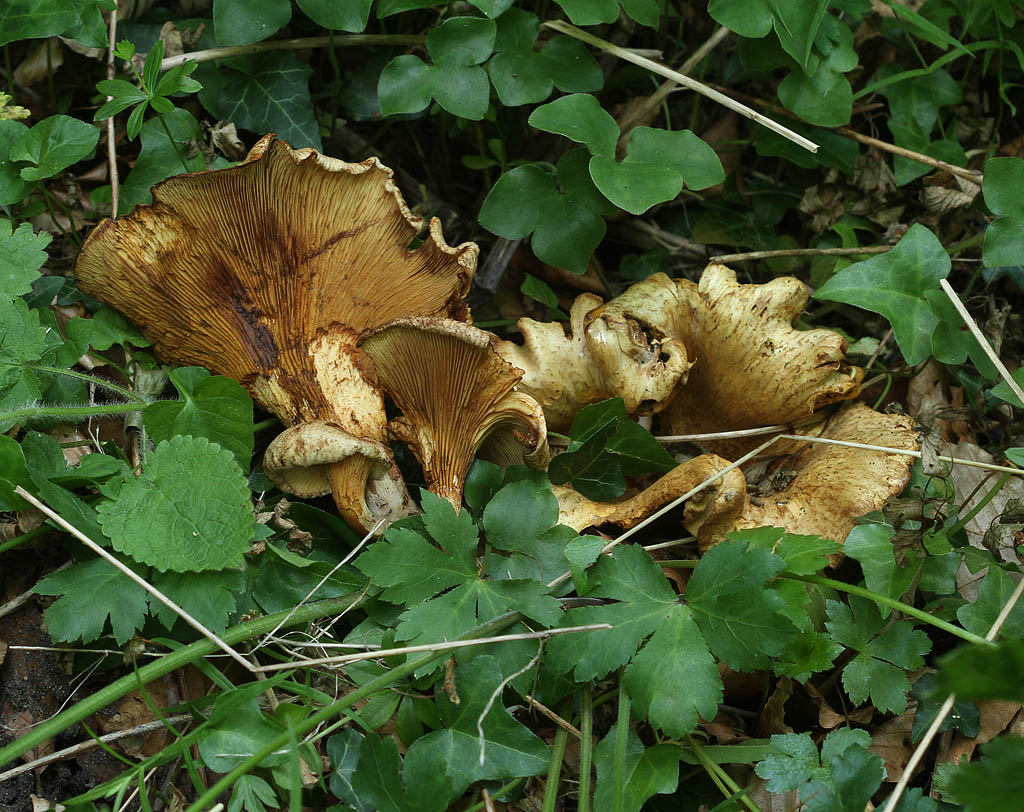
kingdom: Fungi
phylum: Basidiomycota
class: Agaricomycetes
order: Boletales
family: Paxillaceae
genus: Paxillus
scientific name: Paxillus rubicundulus
